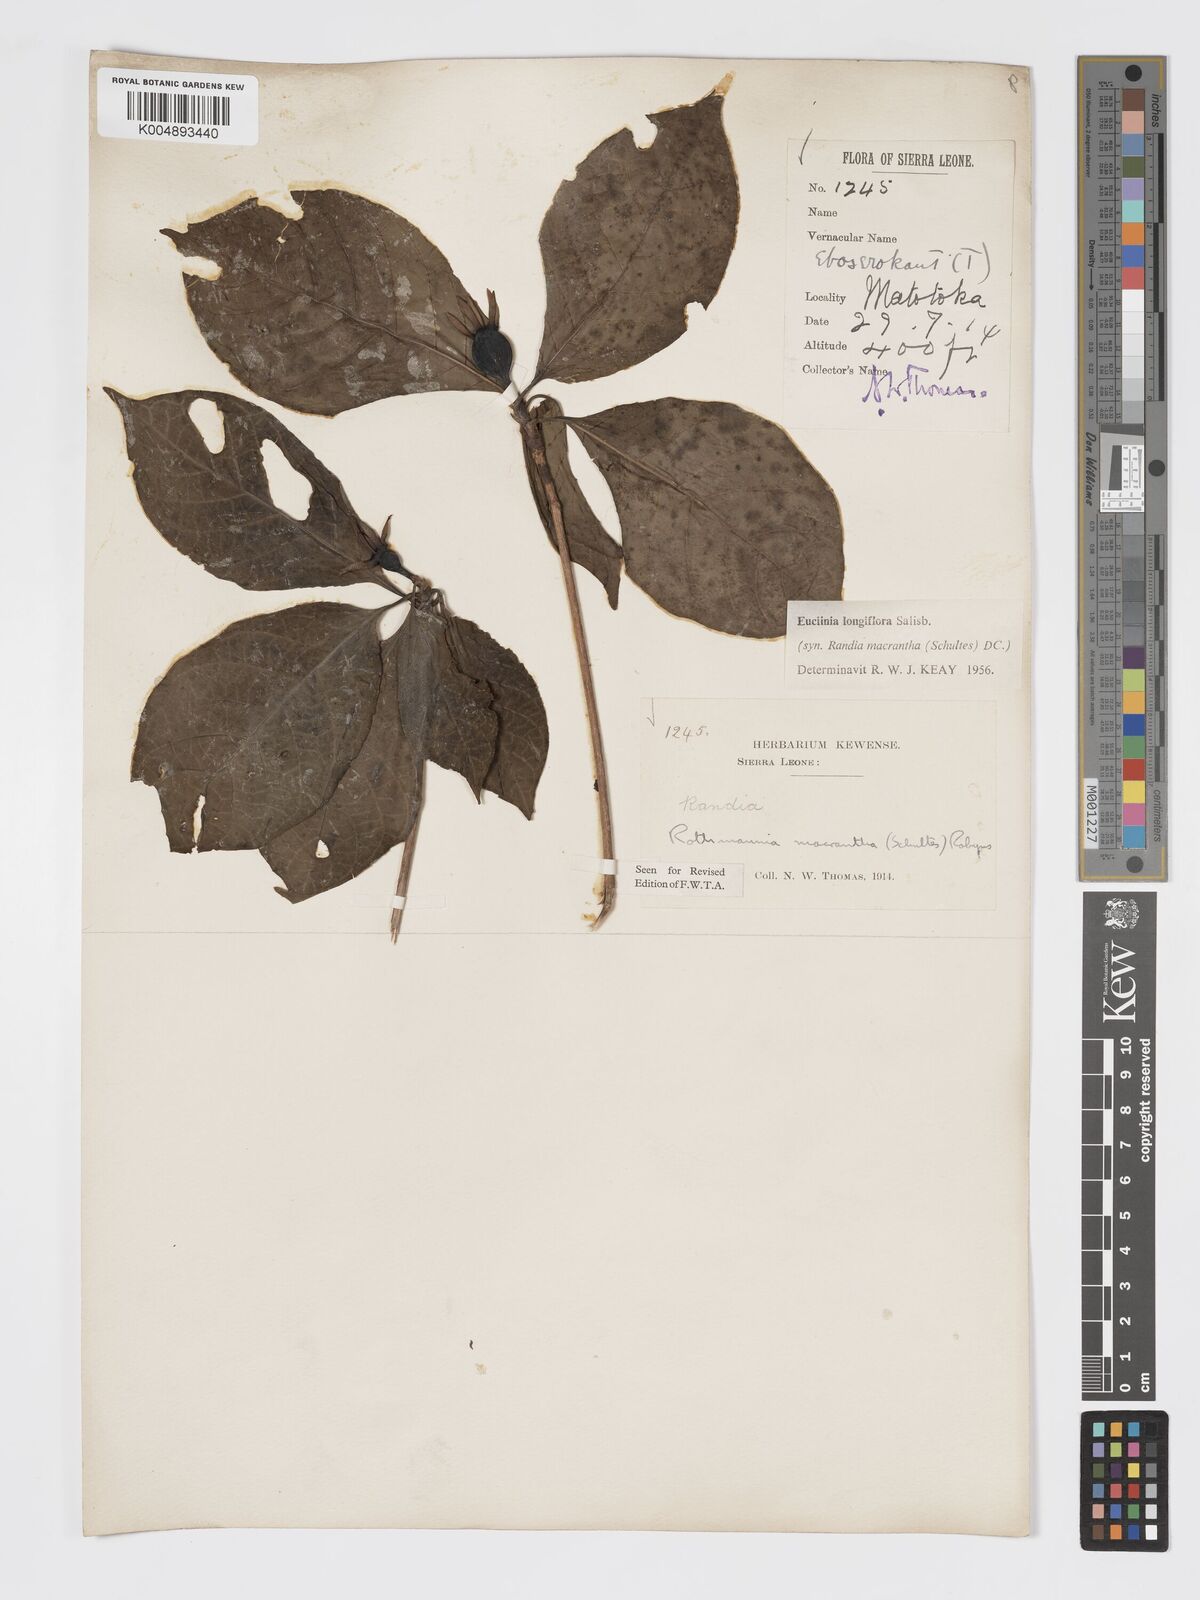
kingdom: Plantae
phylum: Tracheophyta
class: Magnoliopsida
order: Gentianales
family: Rubiaceae
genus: Euclinia
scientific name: Euclinia longiflora
